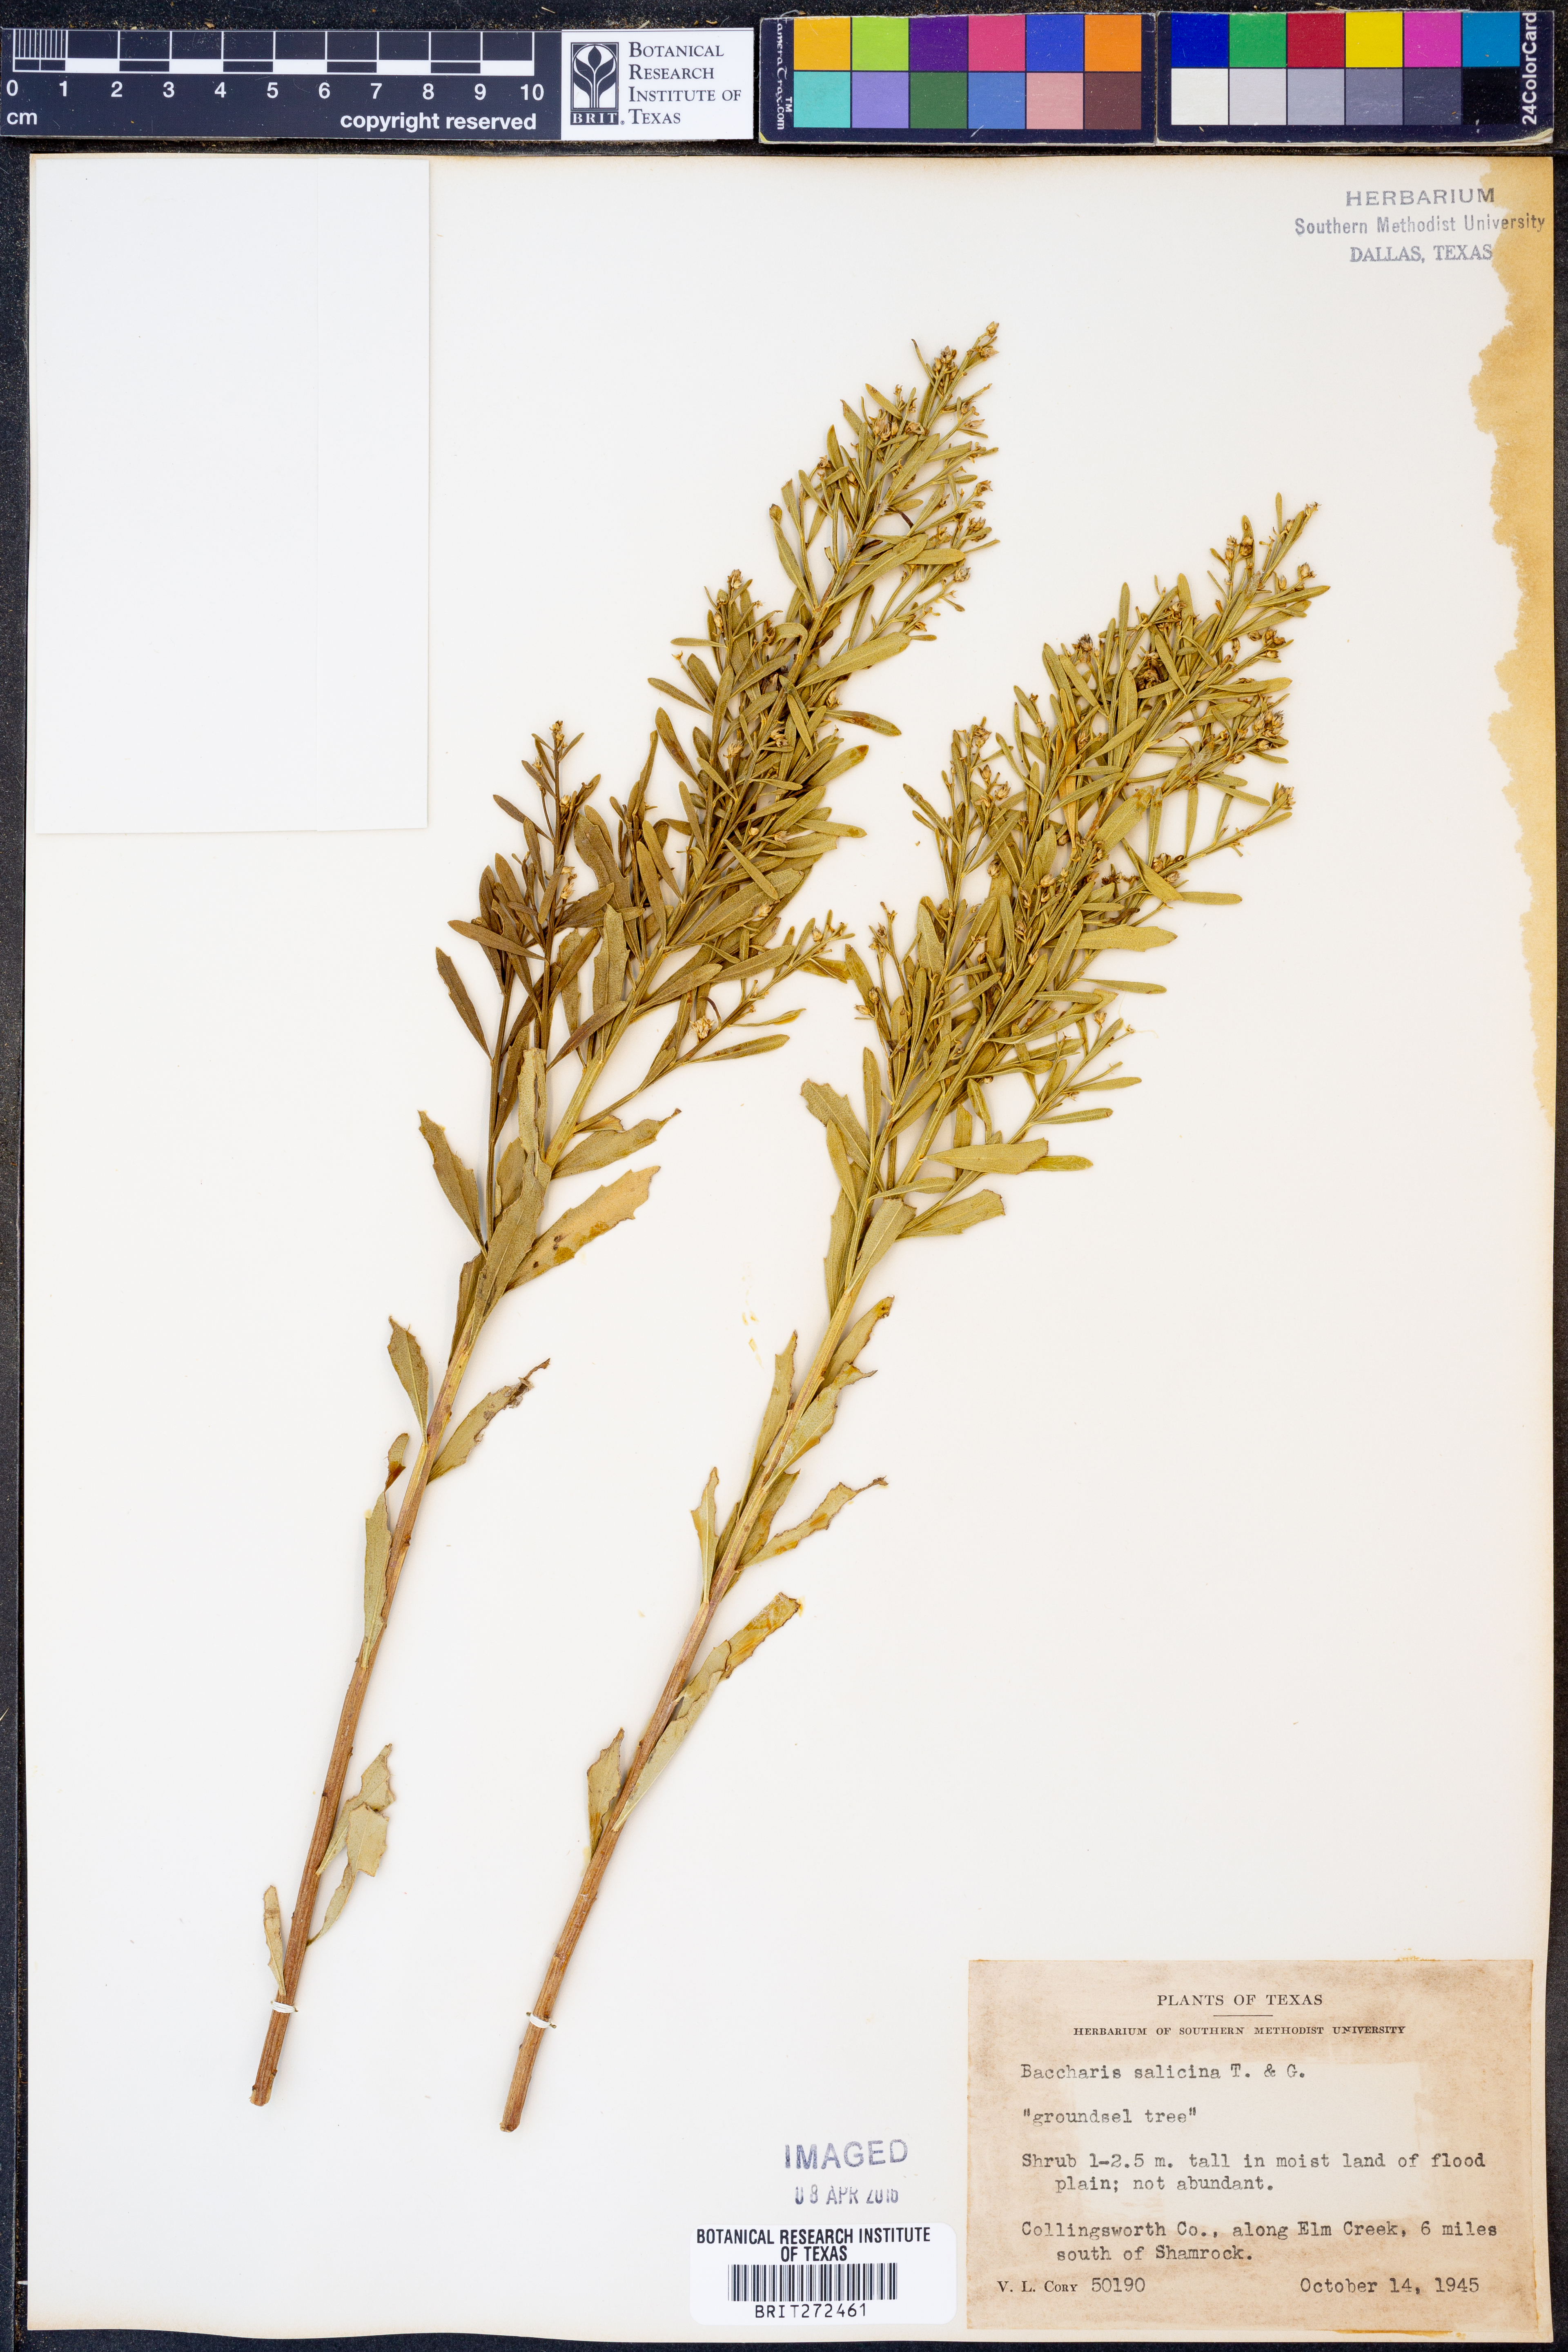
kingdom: Plantae
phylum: Tracheophyta
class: Magnoliopsida
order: Asterales
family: Asteraceae
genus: Baccharis
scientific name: Baccharis salicina
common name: Willow baccharis
